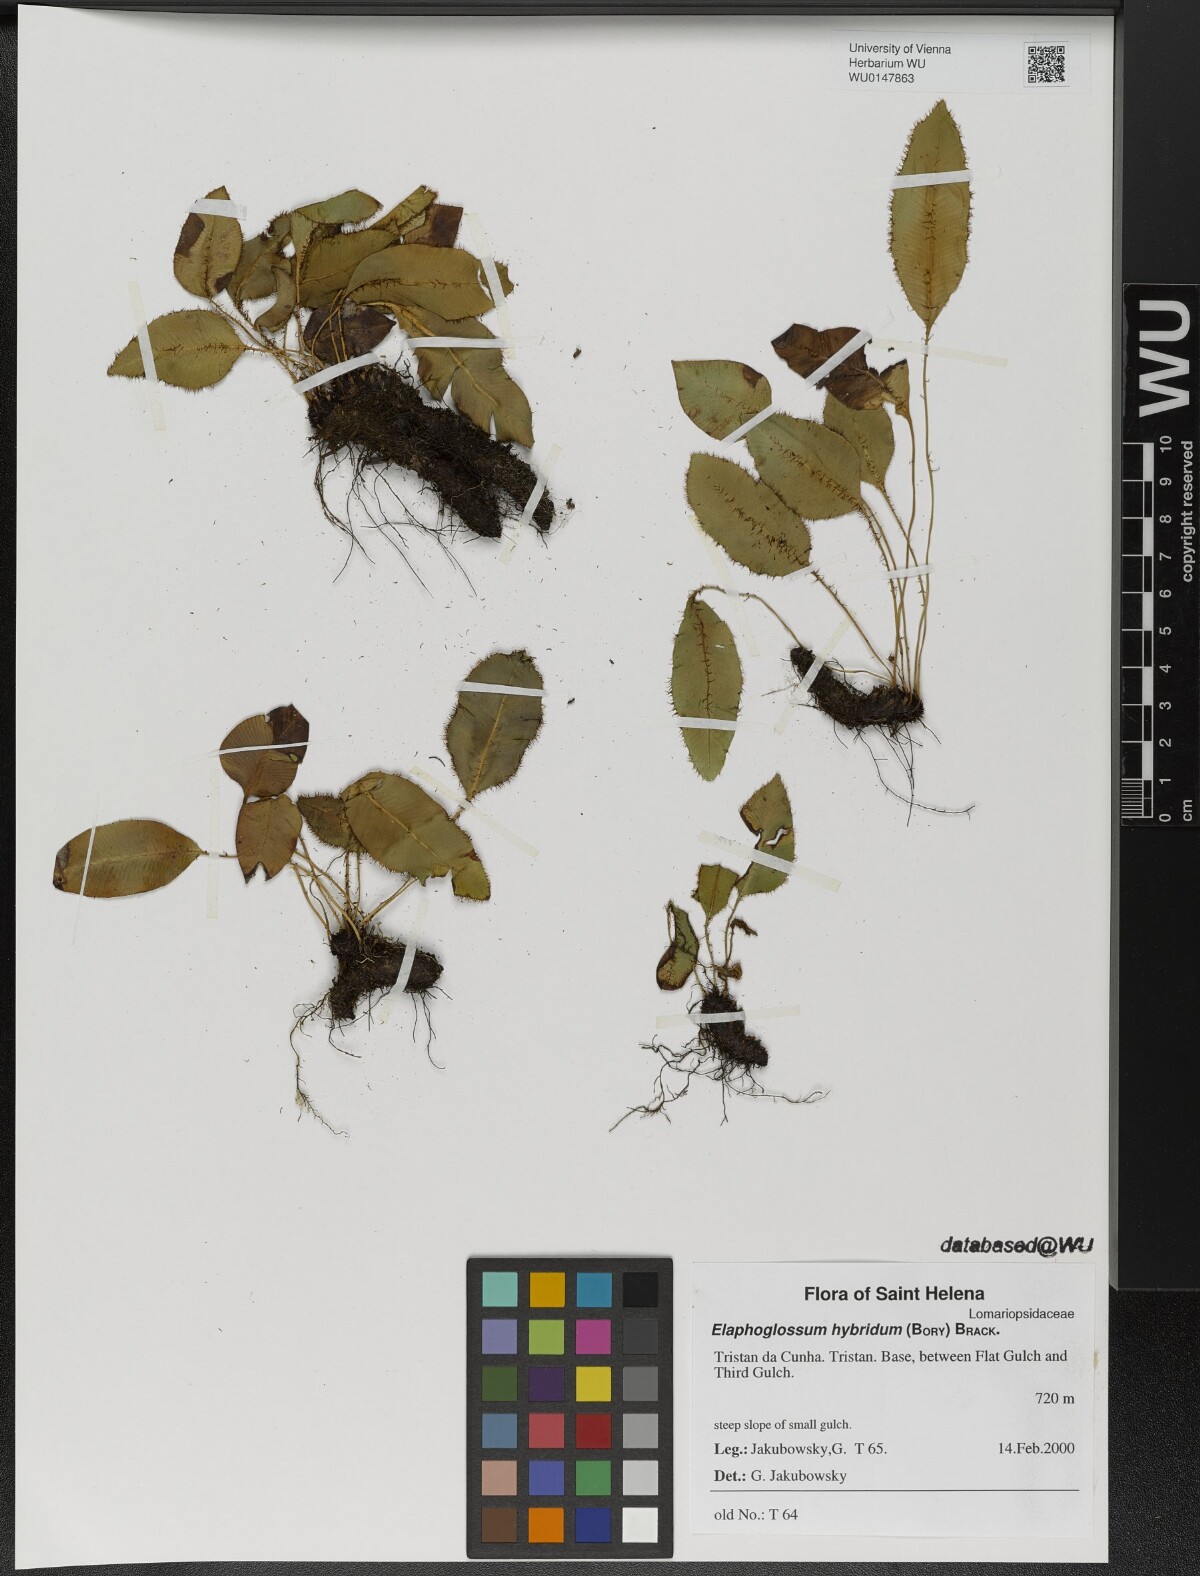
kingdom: Plantae
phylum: Tracheophyta
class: Polypodiopsida
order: Polypodiales
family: Dryopteridaceae
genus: Elaphoglossum
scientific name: Elaphoglossum hybridum
